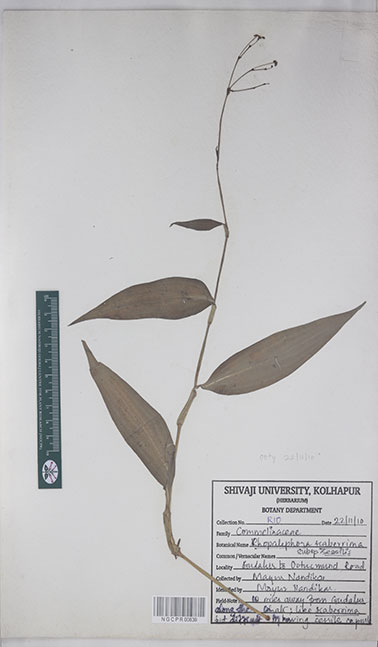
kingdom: Plantae
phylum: Tracheophyta
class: Liliopsida
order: Commelinales
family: Commelinaceae
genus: Rhopalephora
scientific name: Rhopalephora scaberrima
